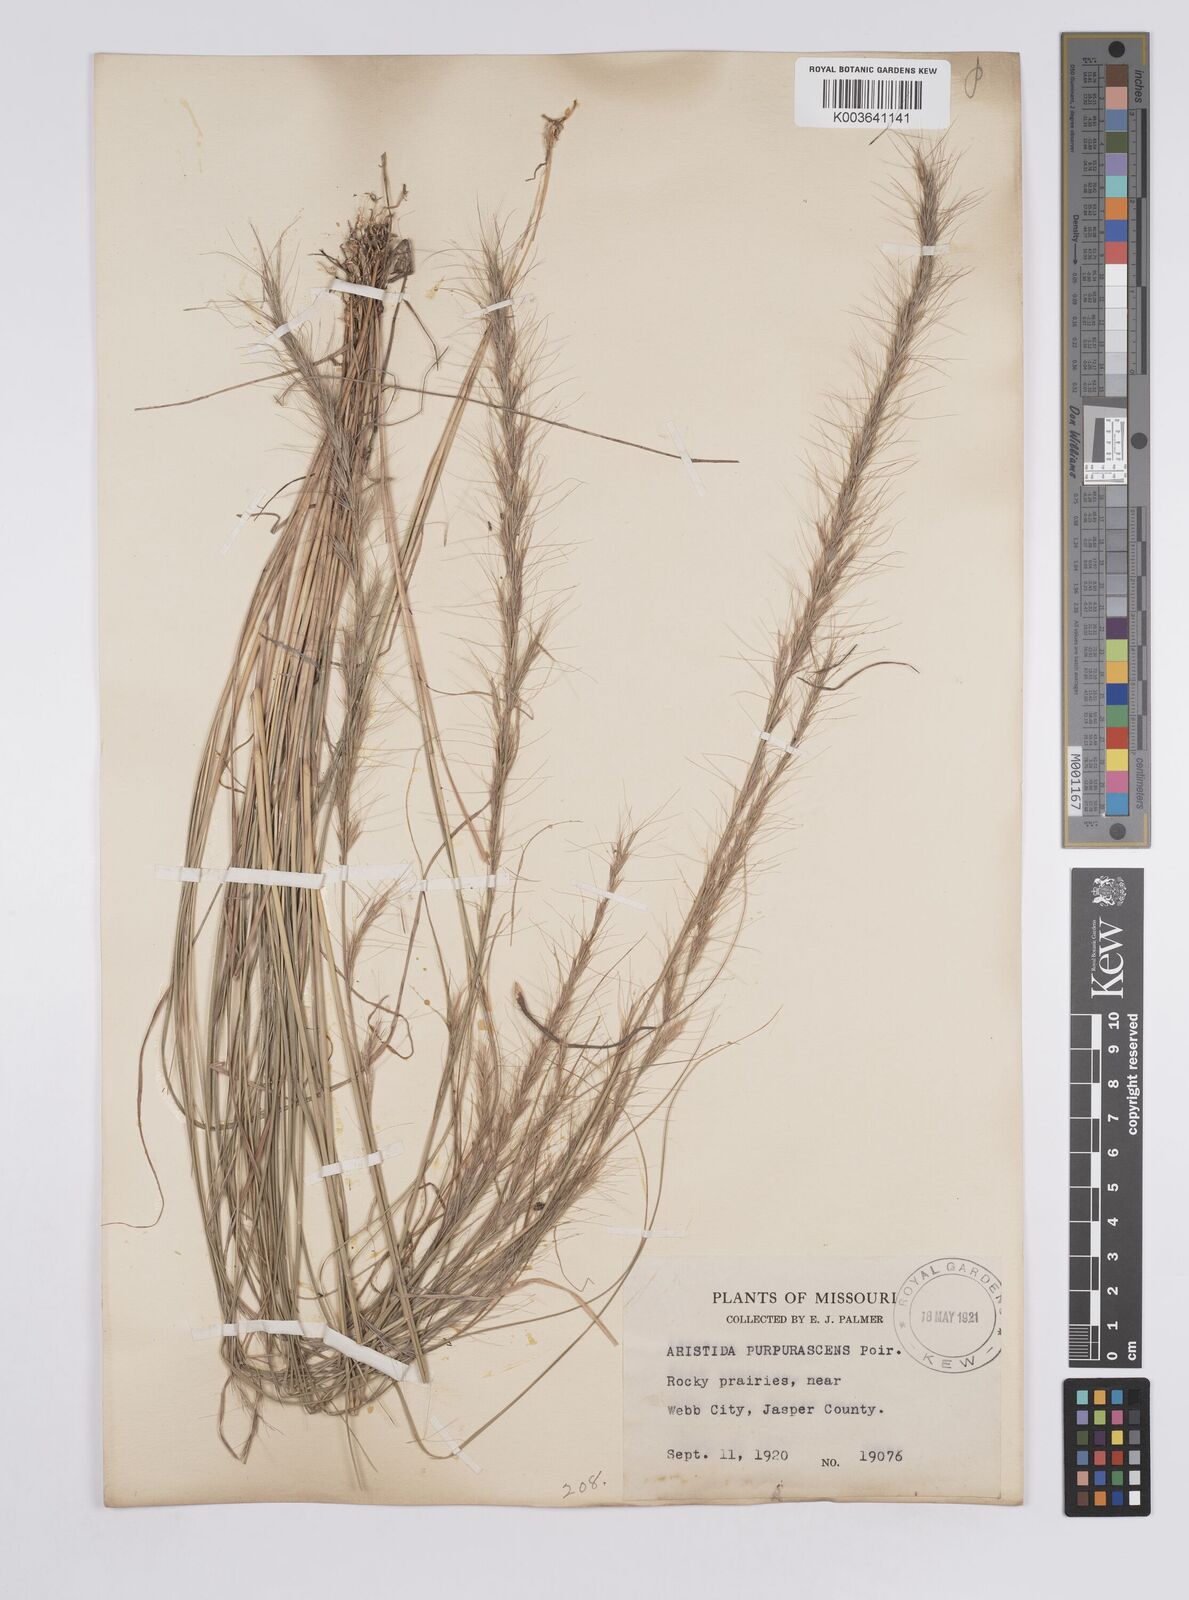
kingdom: Plantae
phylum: Tracheophyta
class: Liliopsida
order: Poales
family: Poaceae
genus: Aristida
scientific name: Aristida palustris
